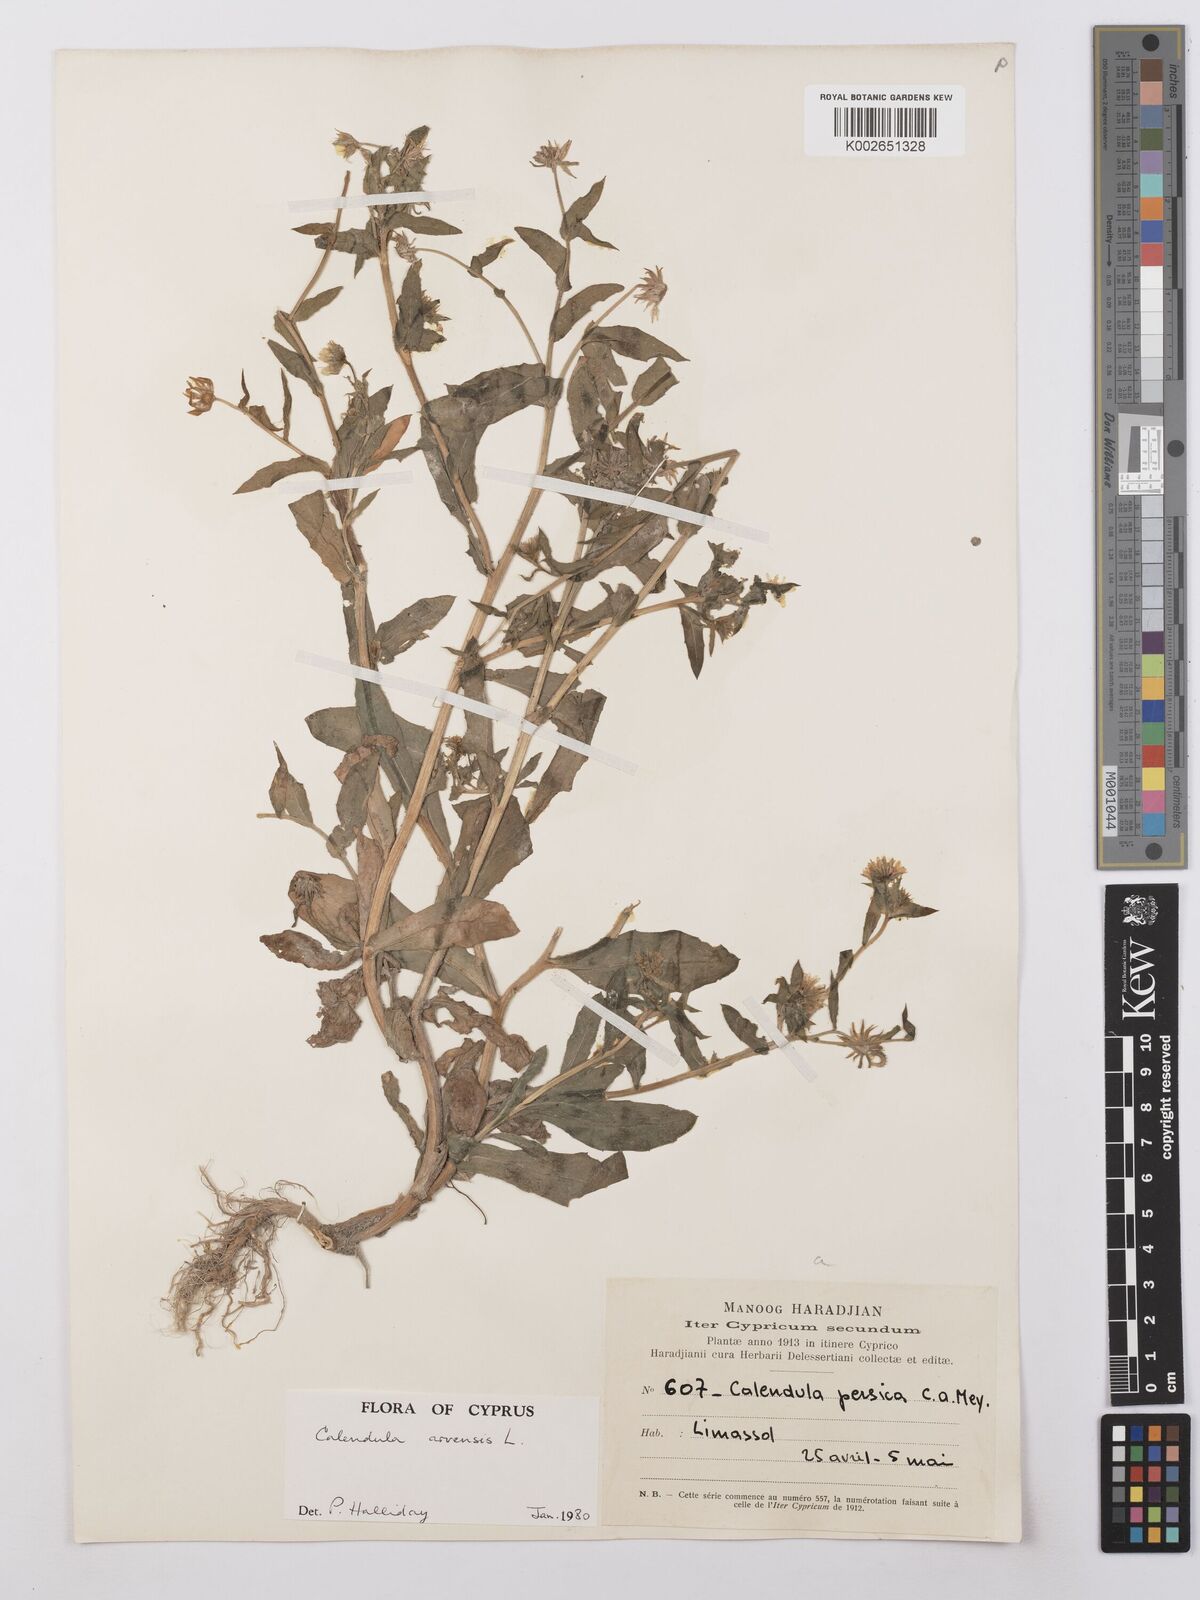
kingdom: Plantae
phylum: Tracheophyta
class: Magnoliopsida
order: Asterales
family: Asteraceae
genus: Calendula
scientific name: Calendula arvensis
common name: Field marigold
